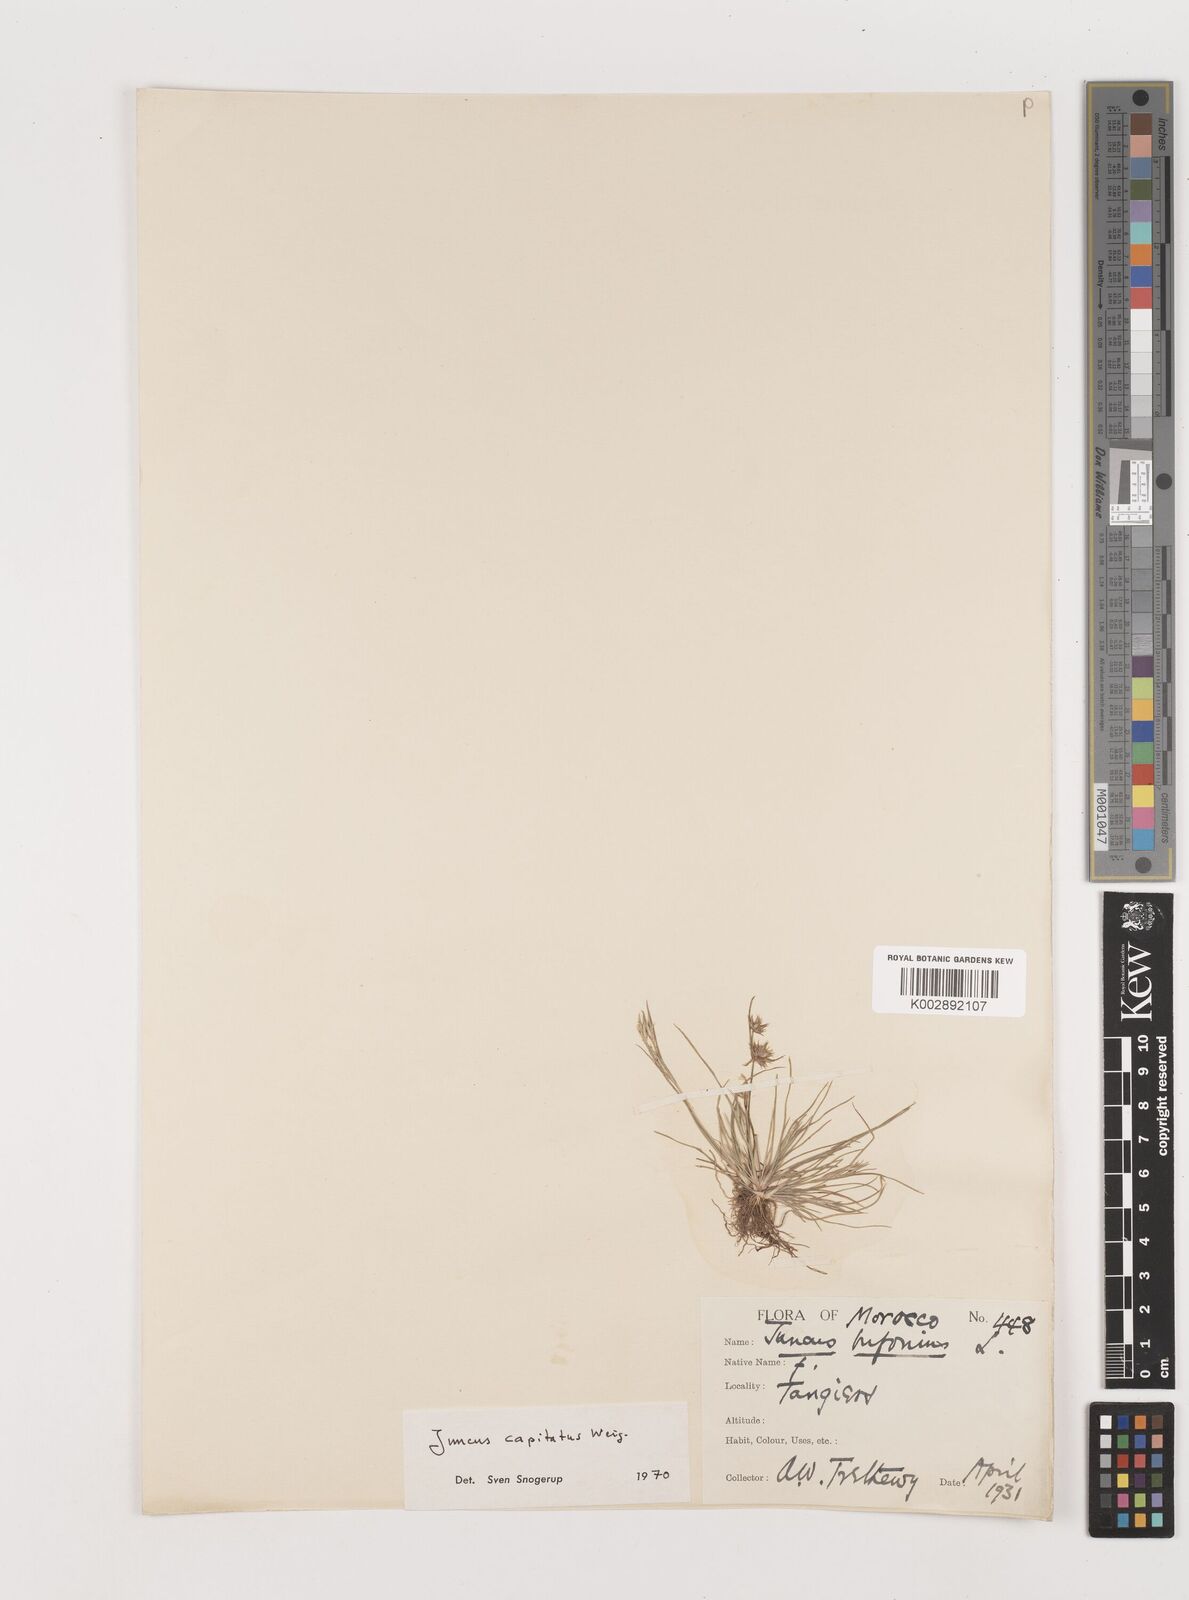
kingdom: Plantae
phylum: Tracheophyta
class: Liliopsida
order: Poales
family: Juncaceae
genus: Juncus
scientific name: Juncus capitatus
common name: Dwarf rush
